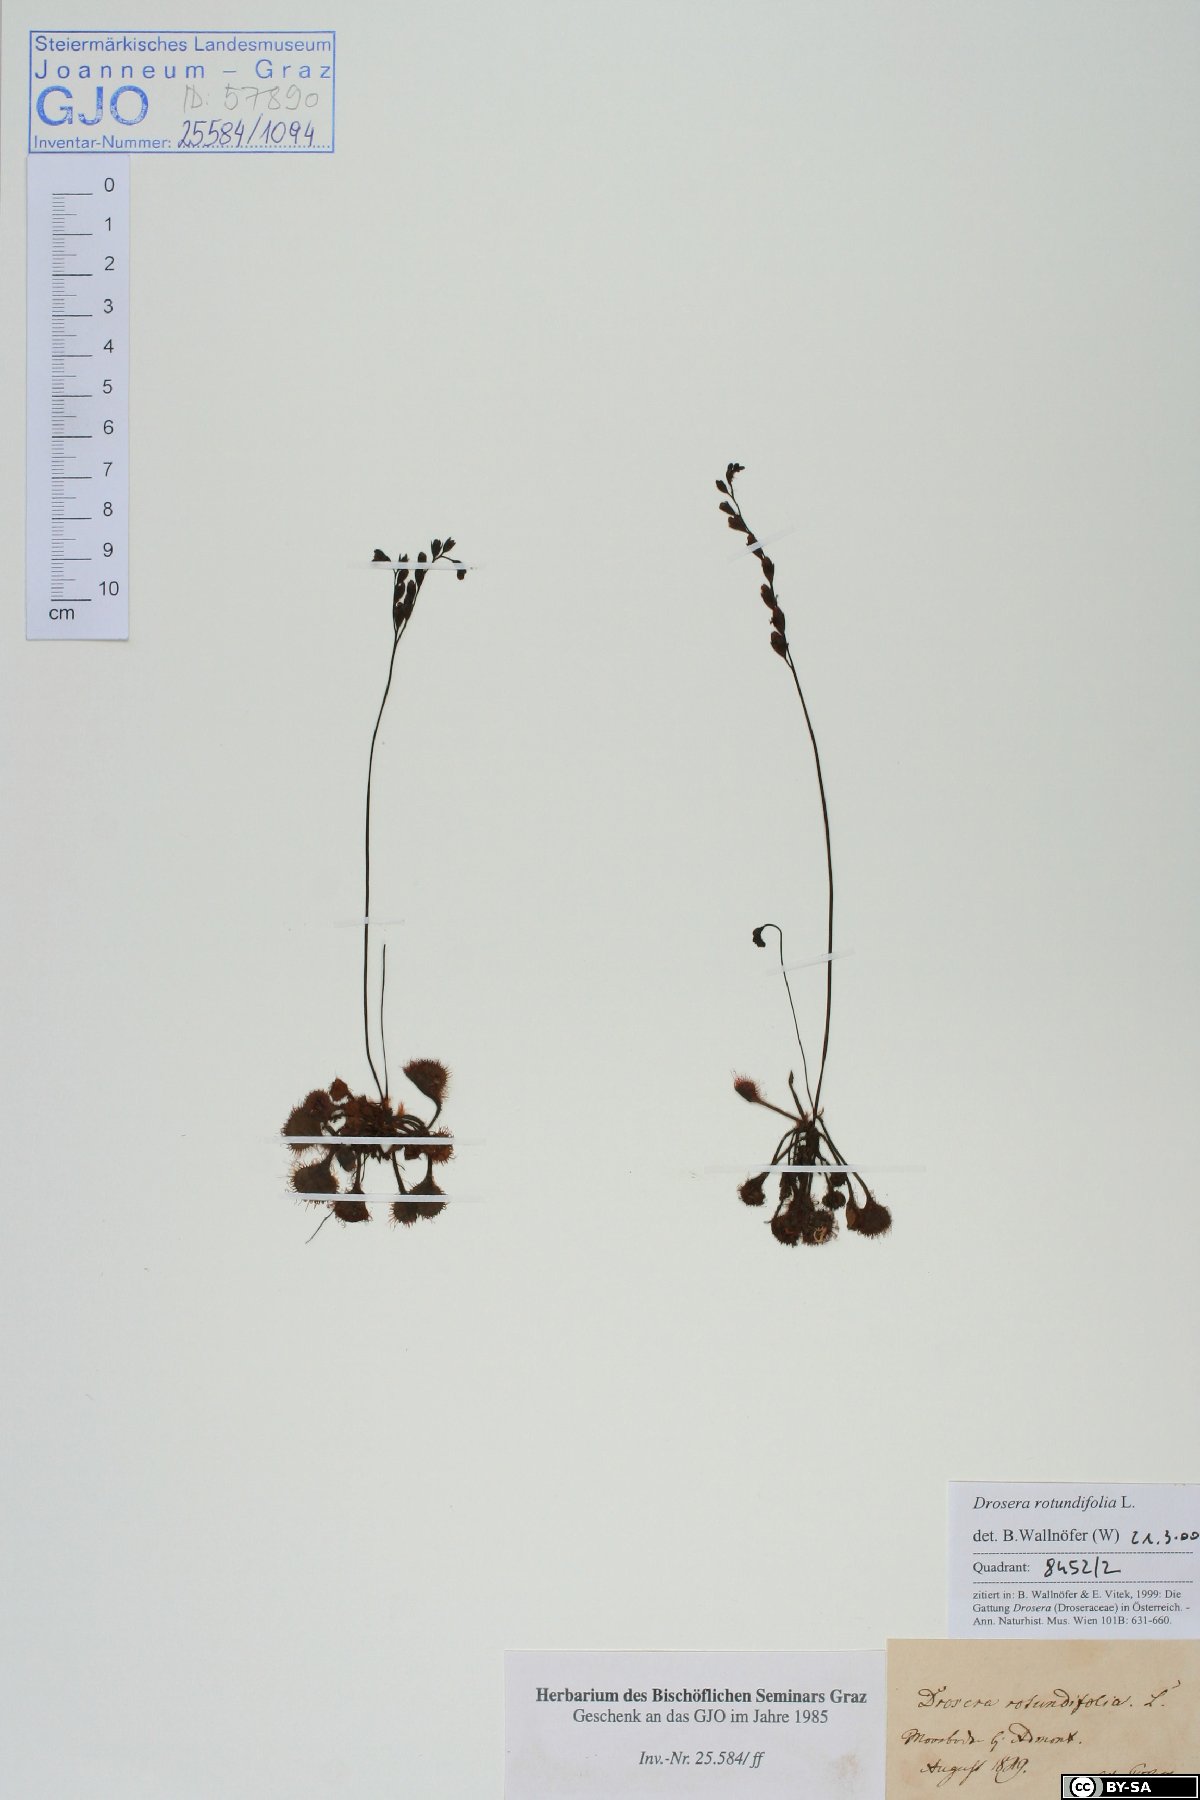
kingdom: Plantae
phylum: Tracheophyta
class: Magnoliopsida
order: Caryophyllales
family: Droseraceae
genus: Drosera
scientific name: Drosera rotundifolia
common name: Round-leaved sundew
